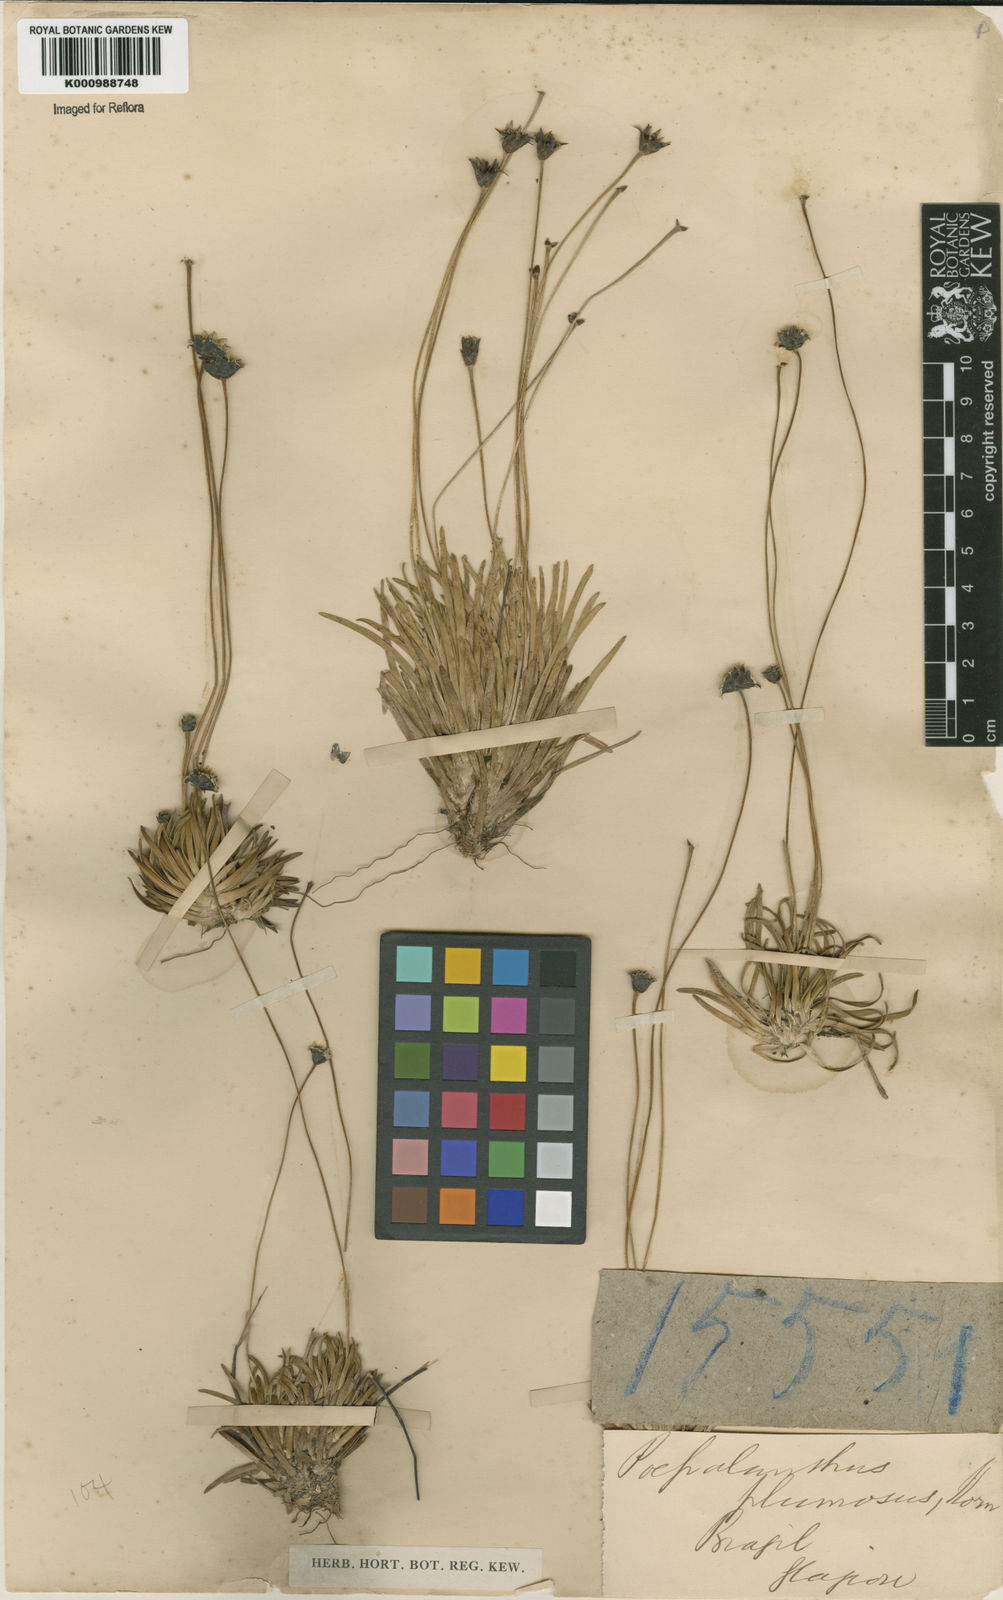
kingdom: Plantae
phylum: Tracheophyta
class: Liliopsida
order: Poales
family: Eriocaulaceae
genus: Paepalanthus
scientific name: Paepalanthus
